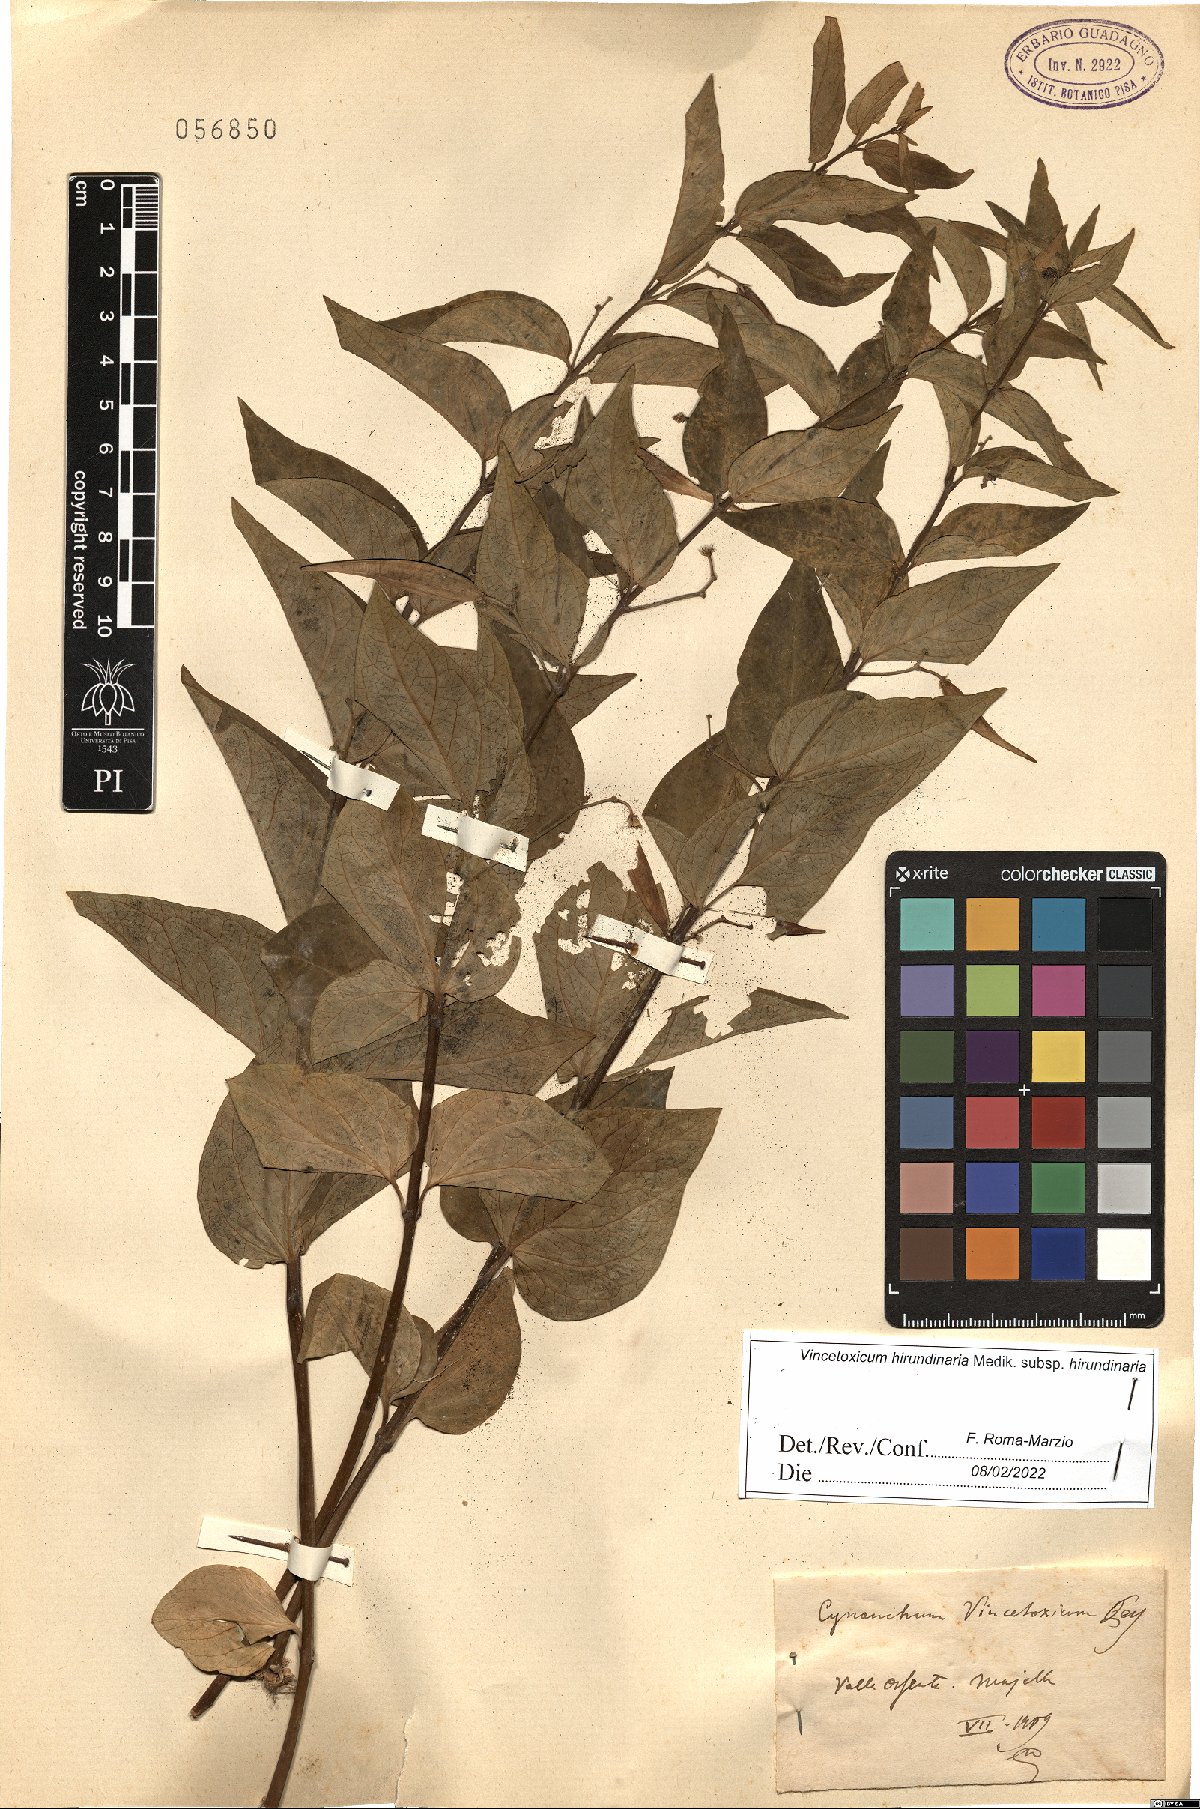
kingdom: Plantae
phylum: Tracheophyta
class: Magnoliopsida
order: Gentianales
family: Apocynaceae
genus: Vincetoxicum
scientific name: Vincetoxicum hirundinaria
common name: White swallowwort
